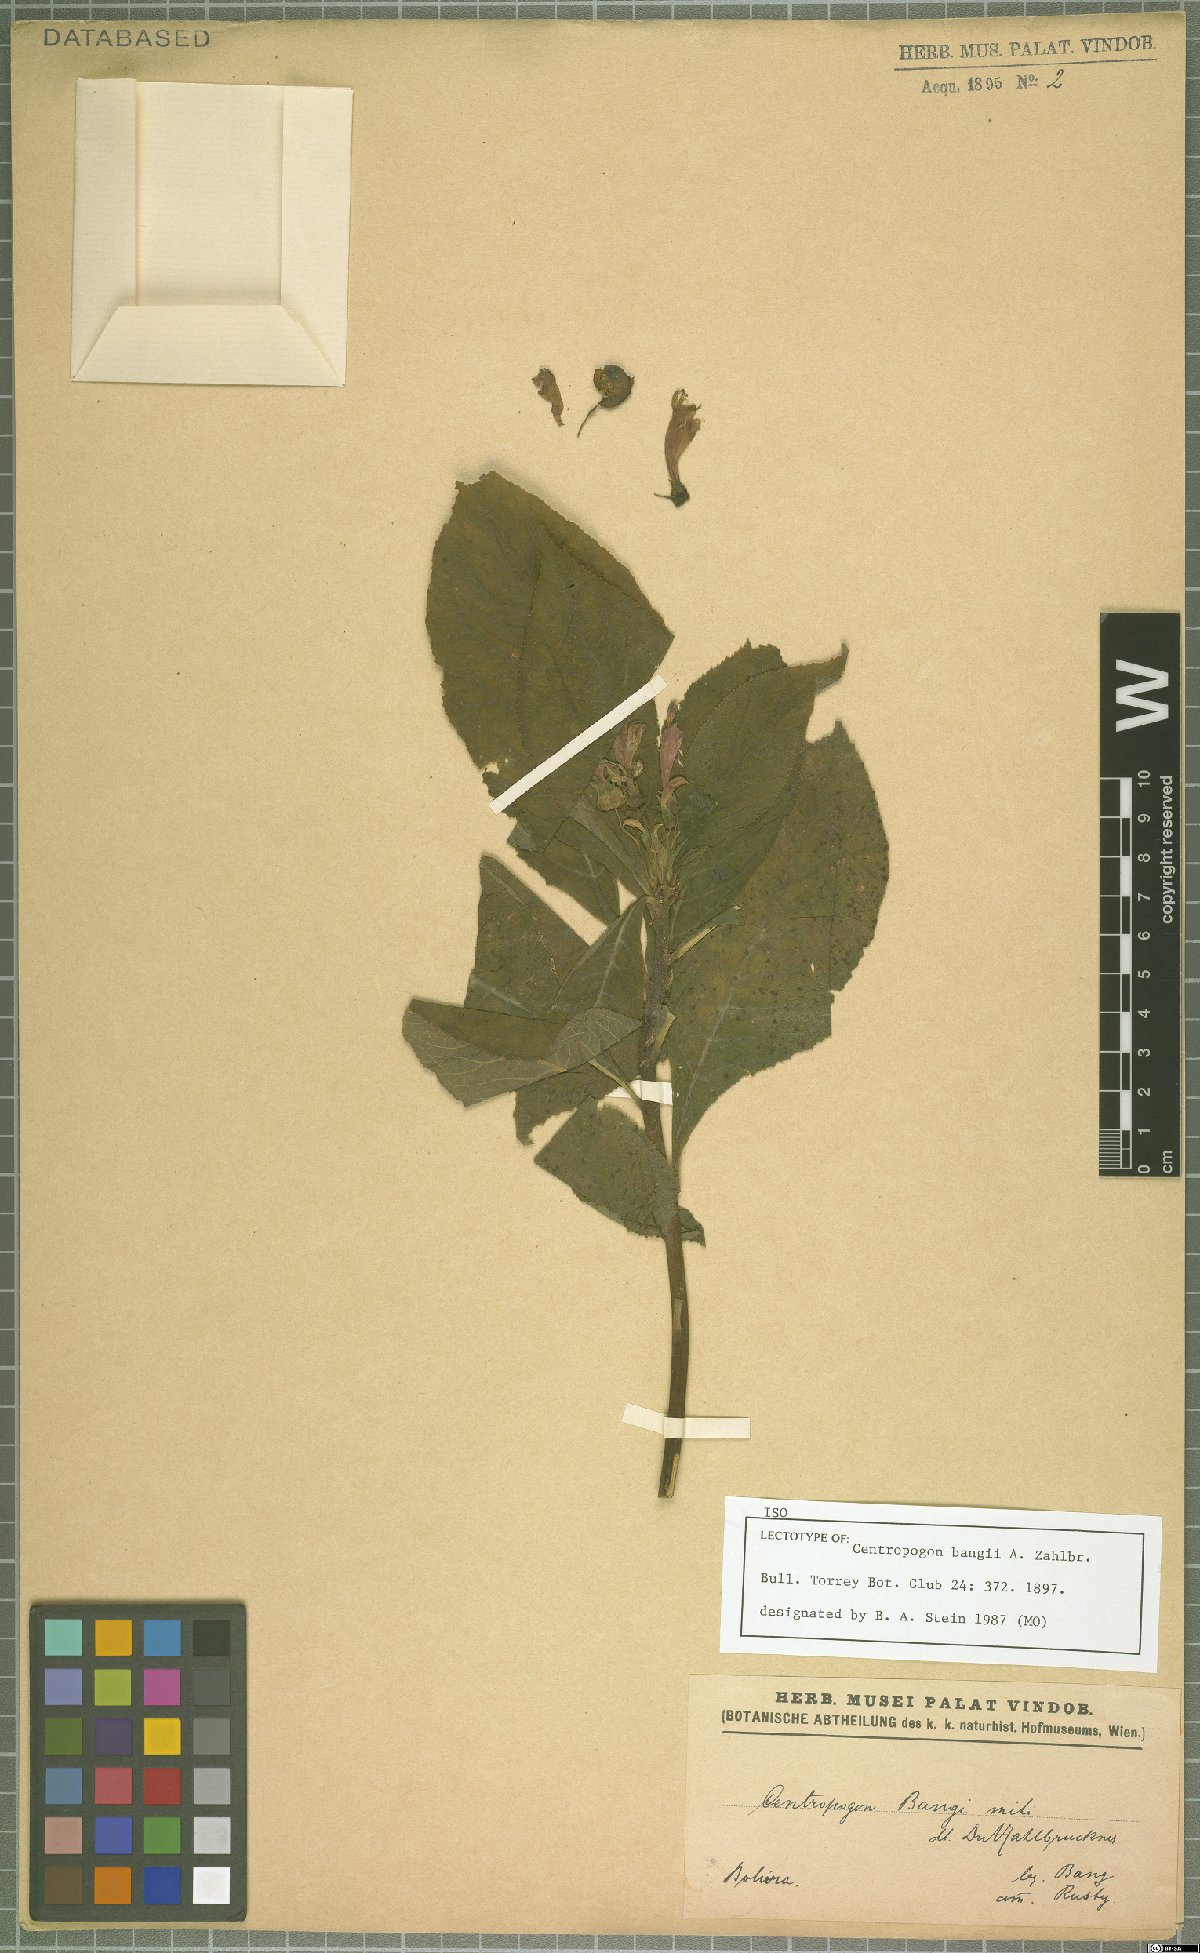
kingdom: Plantae
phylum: Tracheophyta
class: Magnoliopsida
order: Asterales
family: Campanulaceae
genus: Centropogon
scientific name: Centropogon bangii
